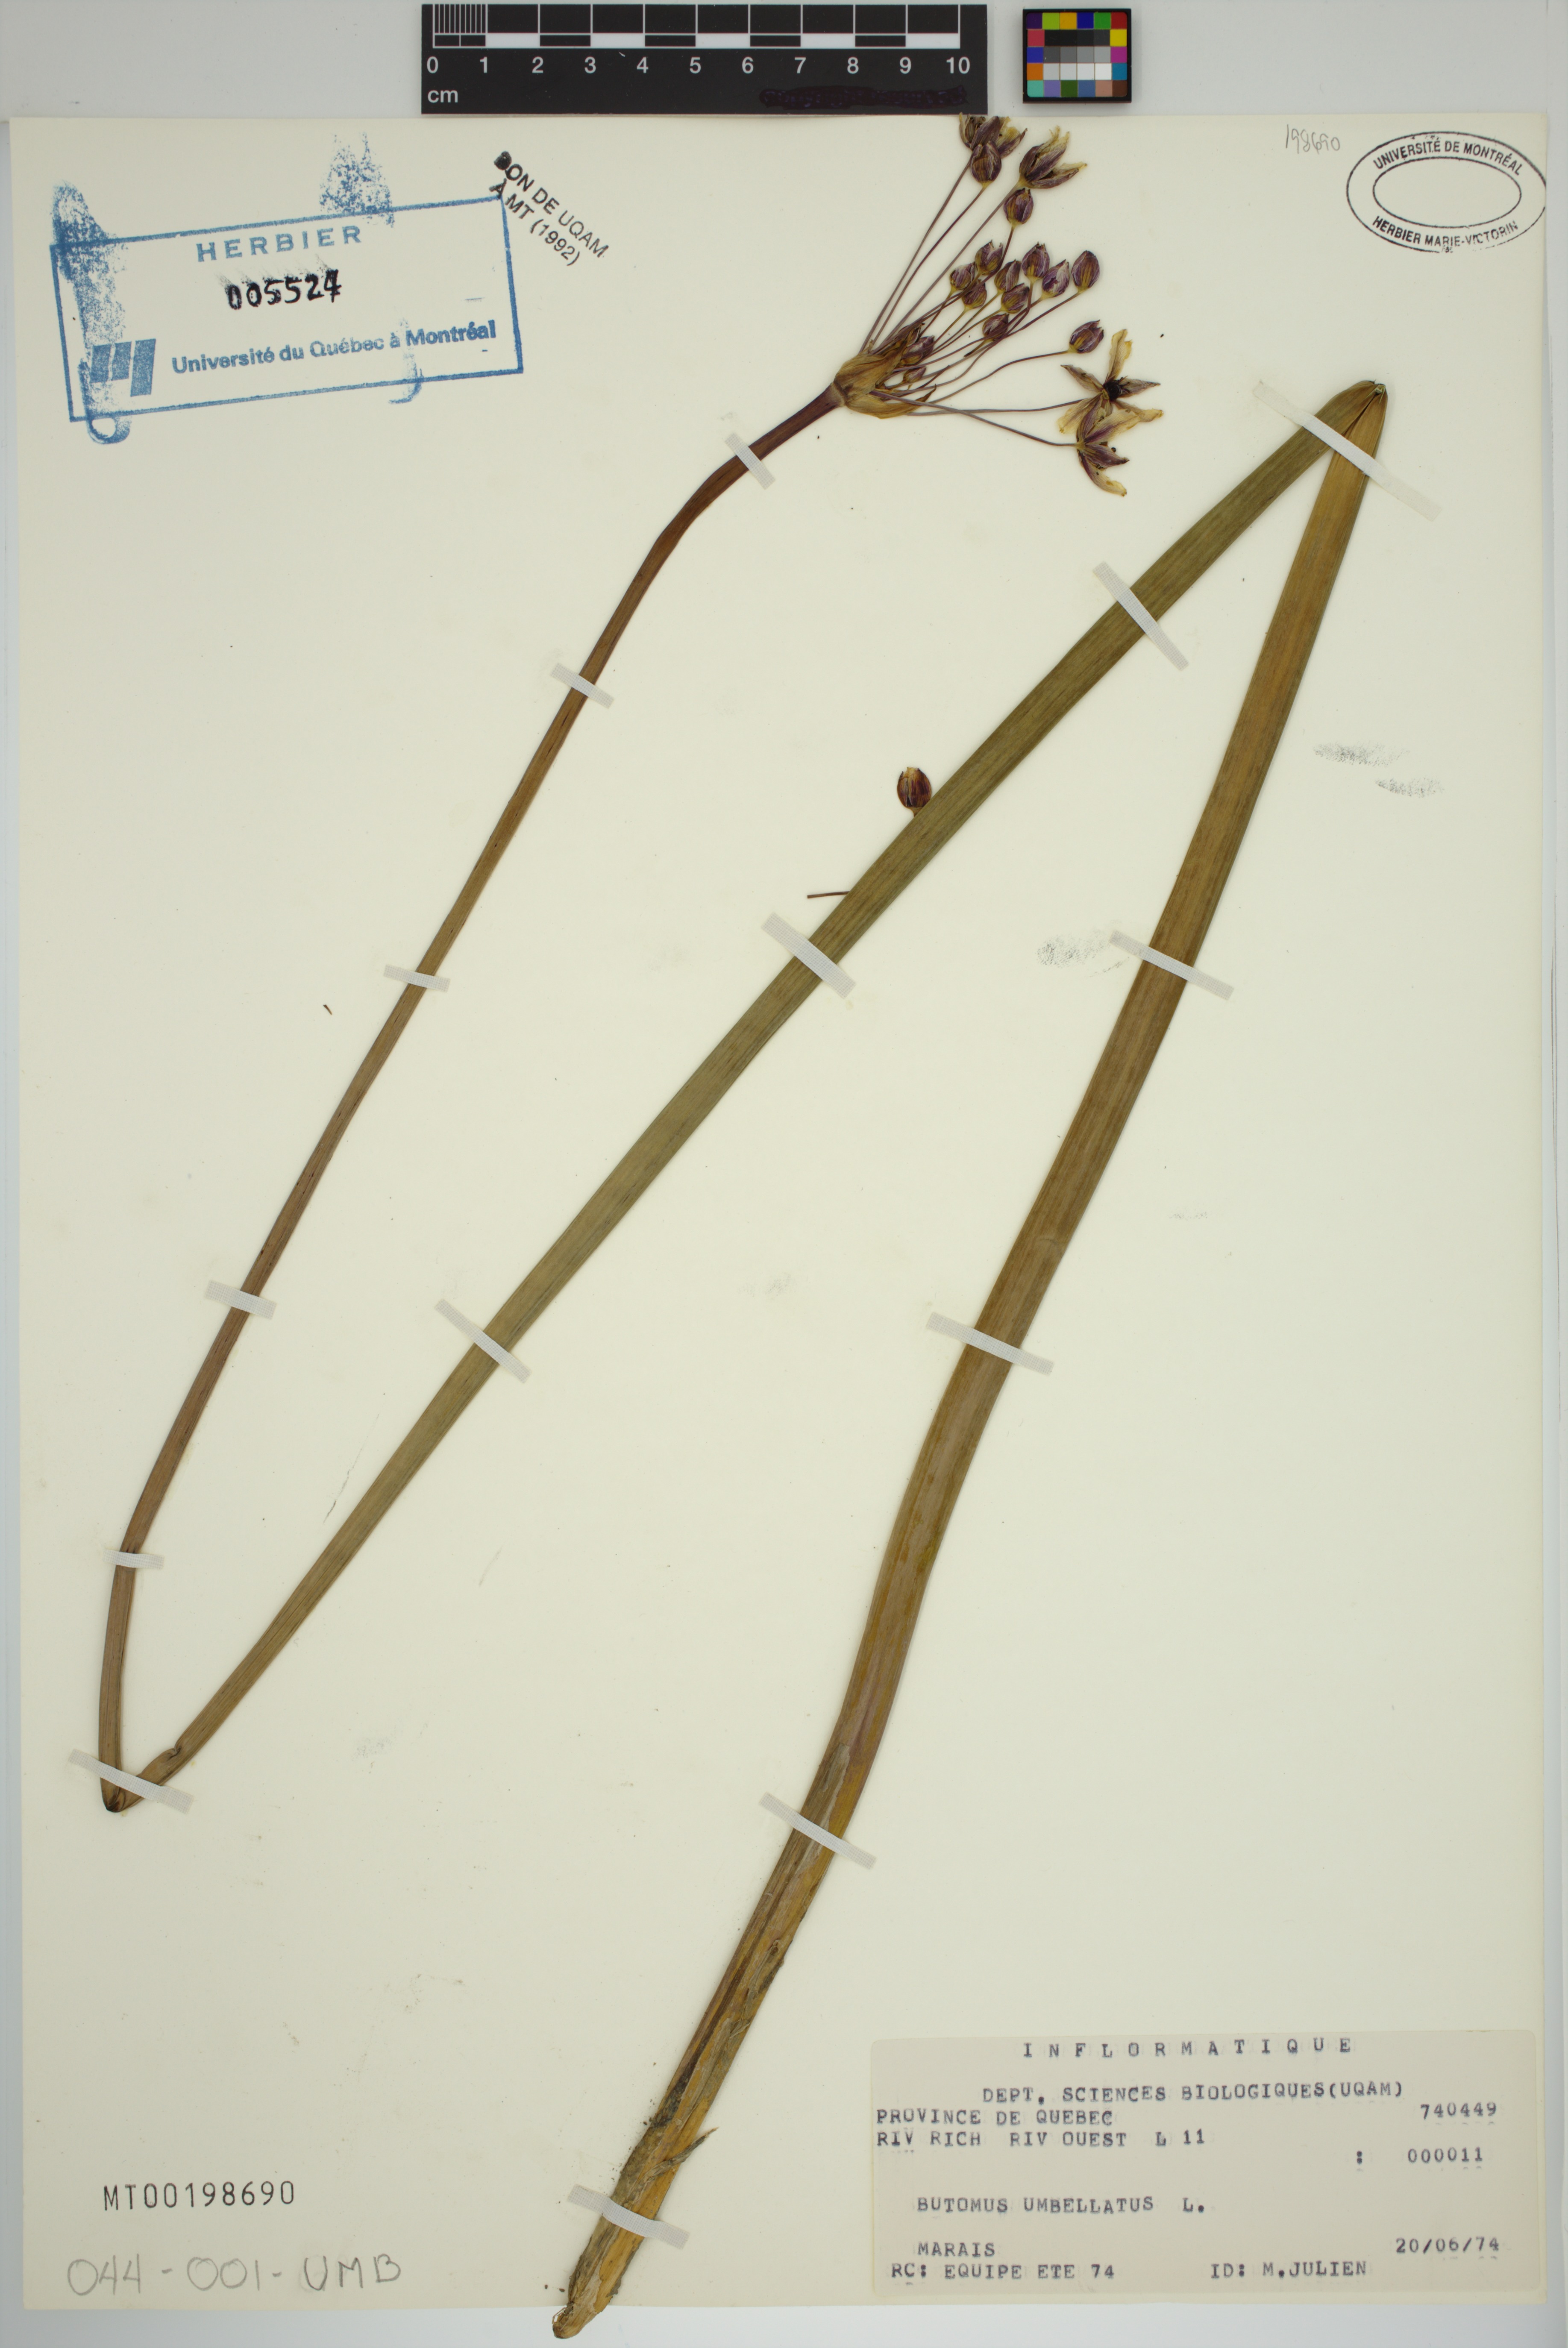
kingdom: Plantae
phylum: Tracheophyta
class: Liliopsida
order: Alismatales
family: Butomaceae
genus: Butomus
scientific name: Butomus umbellatus
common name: Flowering-rush
